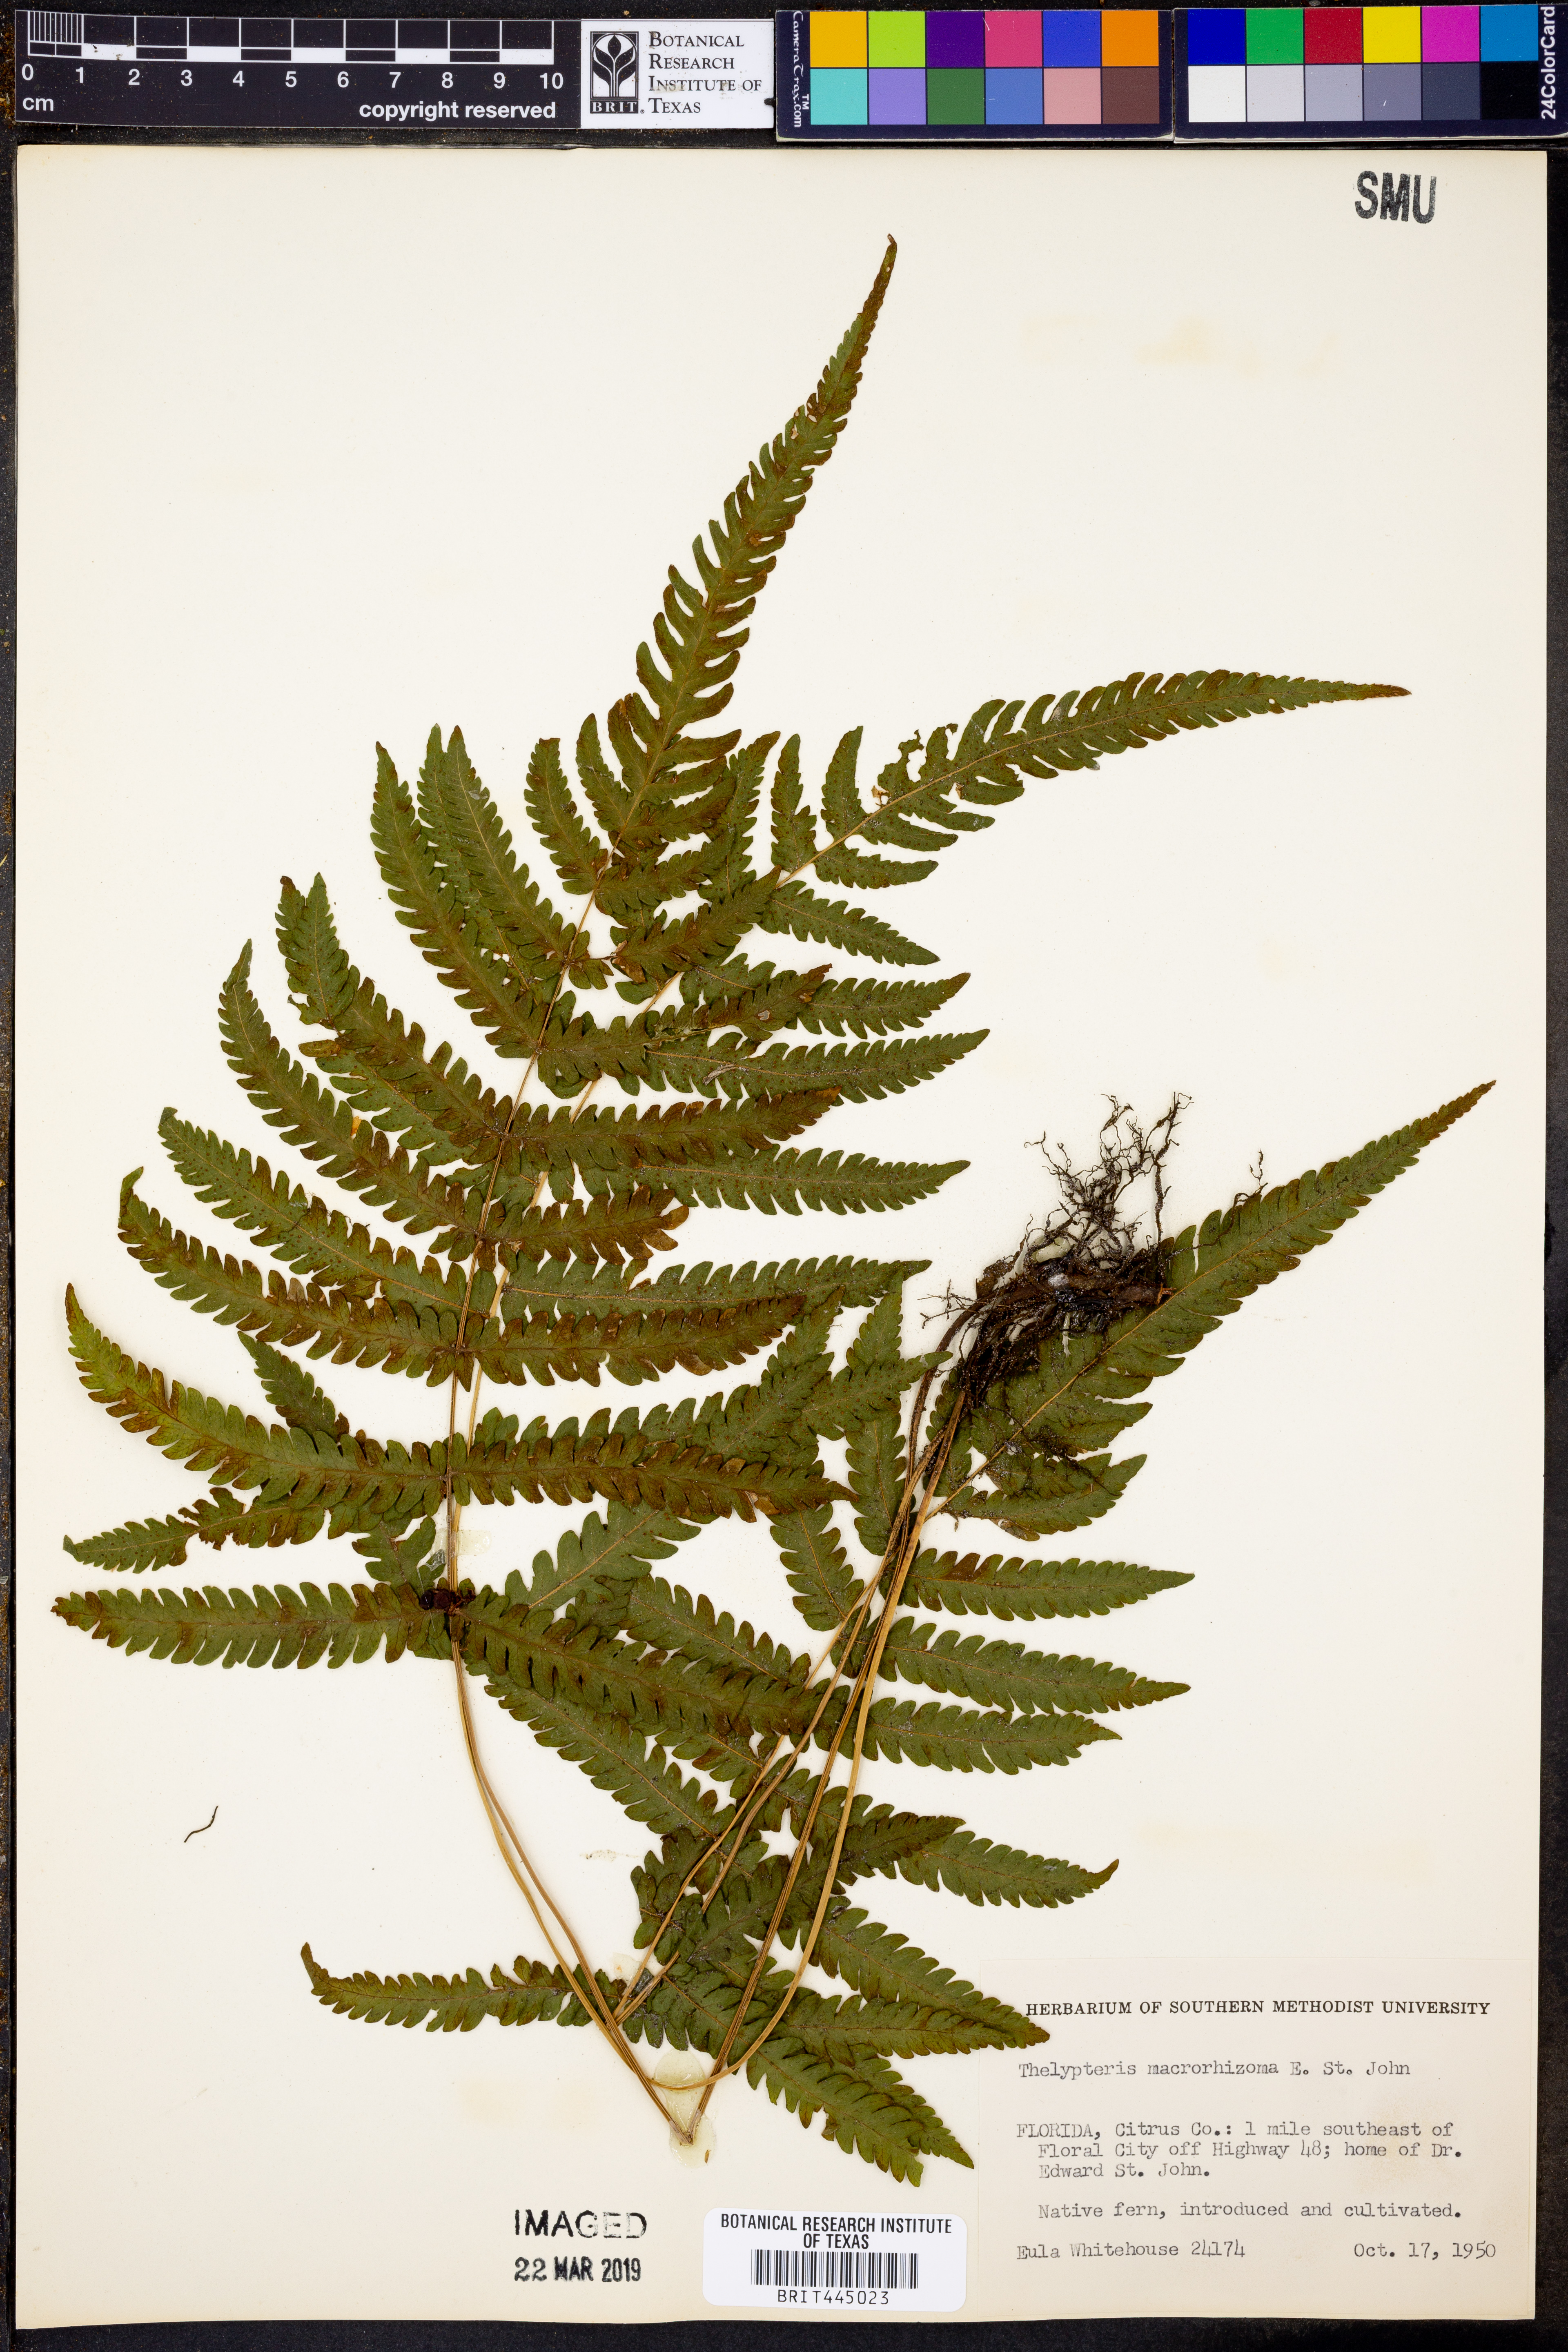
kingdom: Plantae
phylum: Tracheophyta
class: Polypodiopsida
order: Polypodiales
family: Thelypteridaceae
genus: Pelazoneuron
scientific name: Pelazoneuron kunthii
